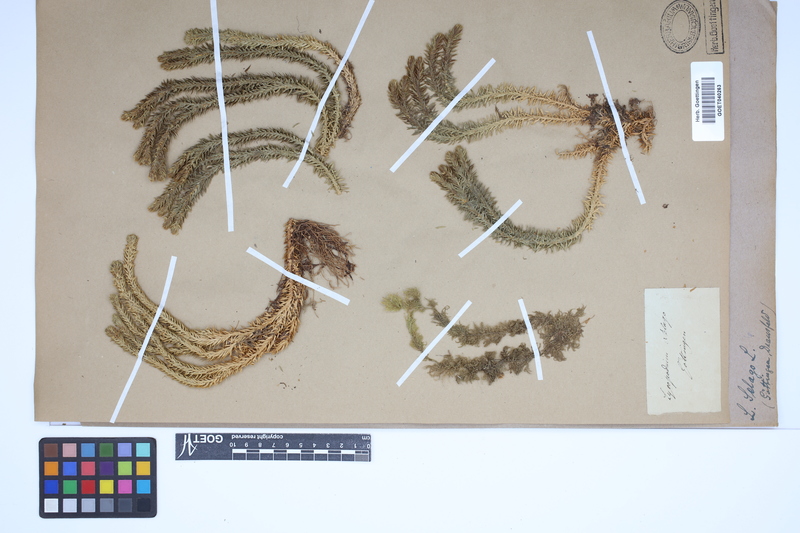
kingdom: Plantae
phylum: Tracheophyta
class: Lycopodiopsida
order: Lycopodiales
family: Lycopodiaceae
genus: Huperzia
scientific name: Huperzia selago
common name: Northern firmoss
